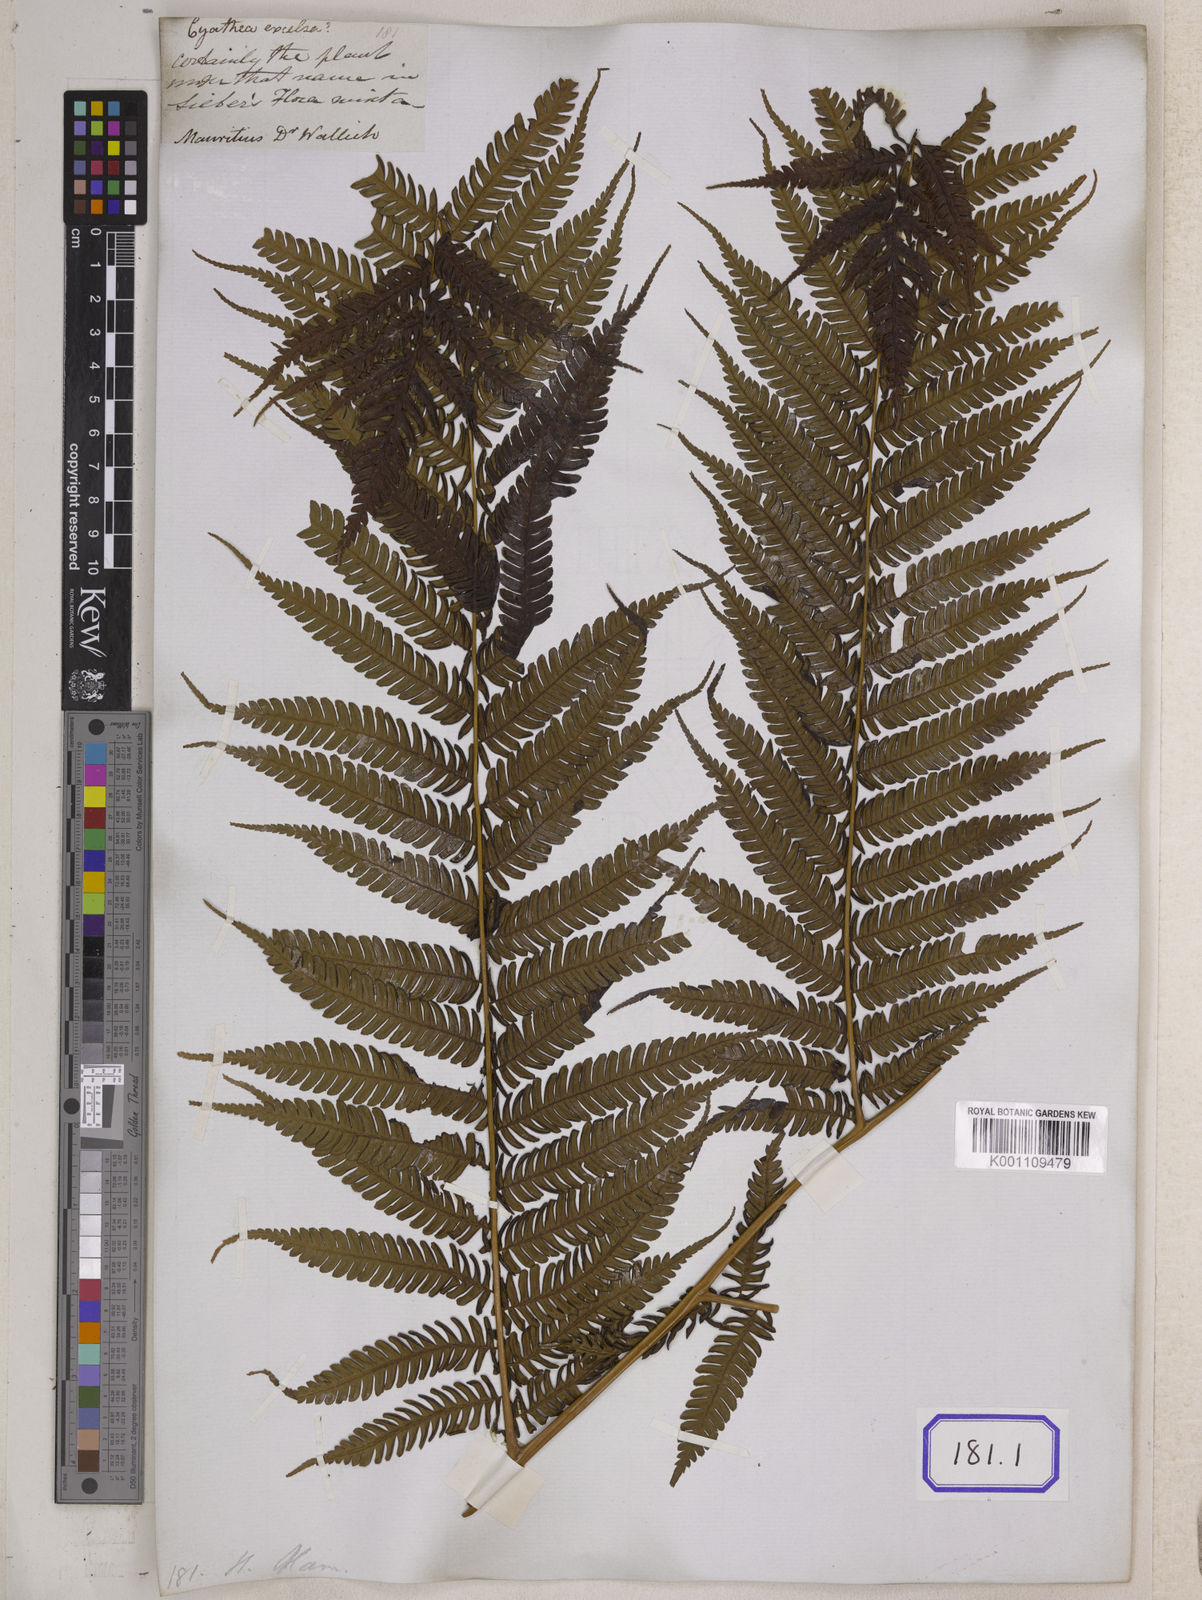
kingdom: Plantae
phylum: Tracheophyta
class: Polypodiopsida
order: Cyatheales
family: Cyatheaceae
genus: Alsophila
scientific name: Alsophila celsa
